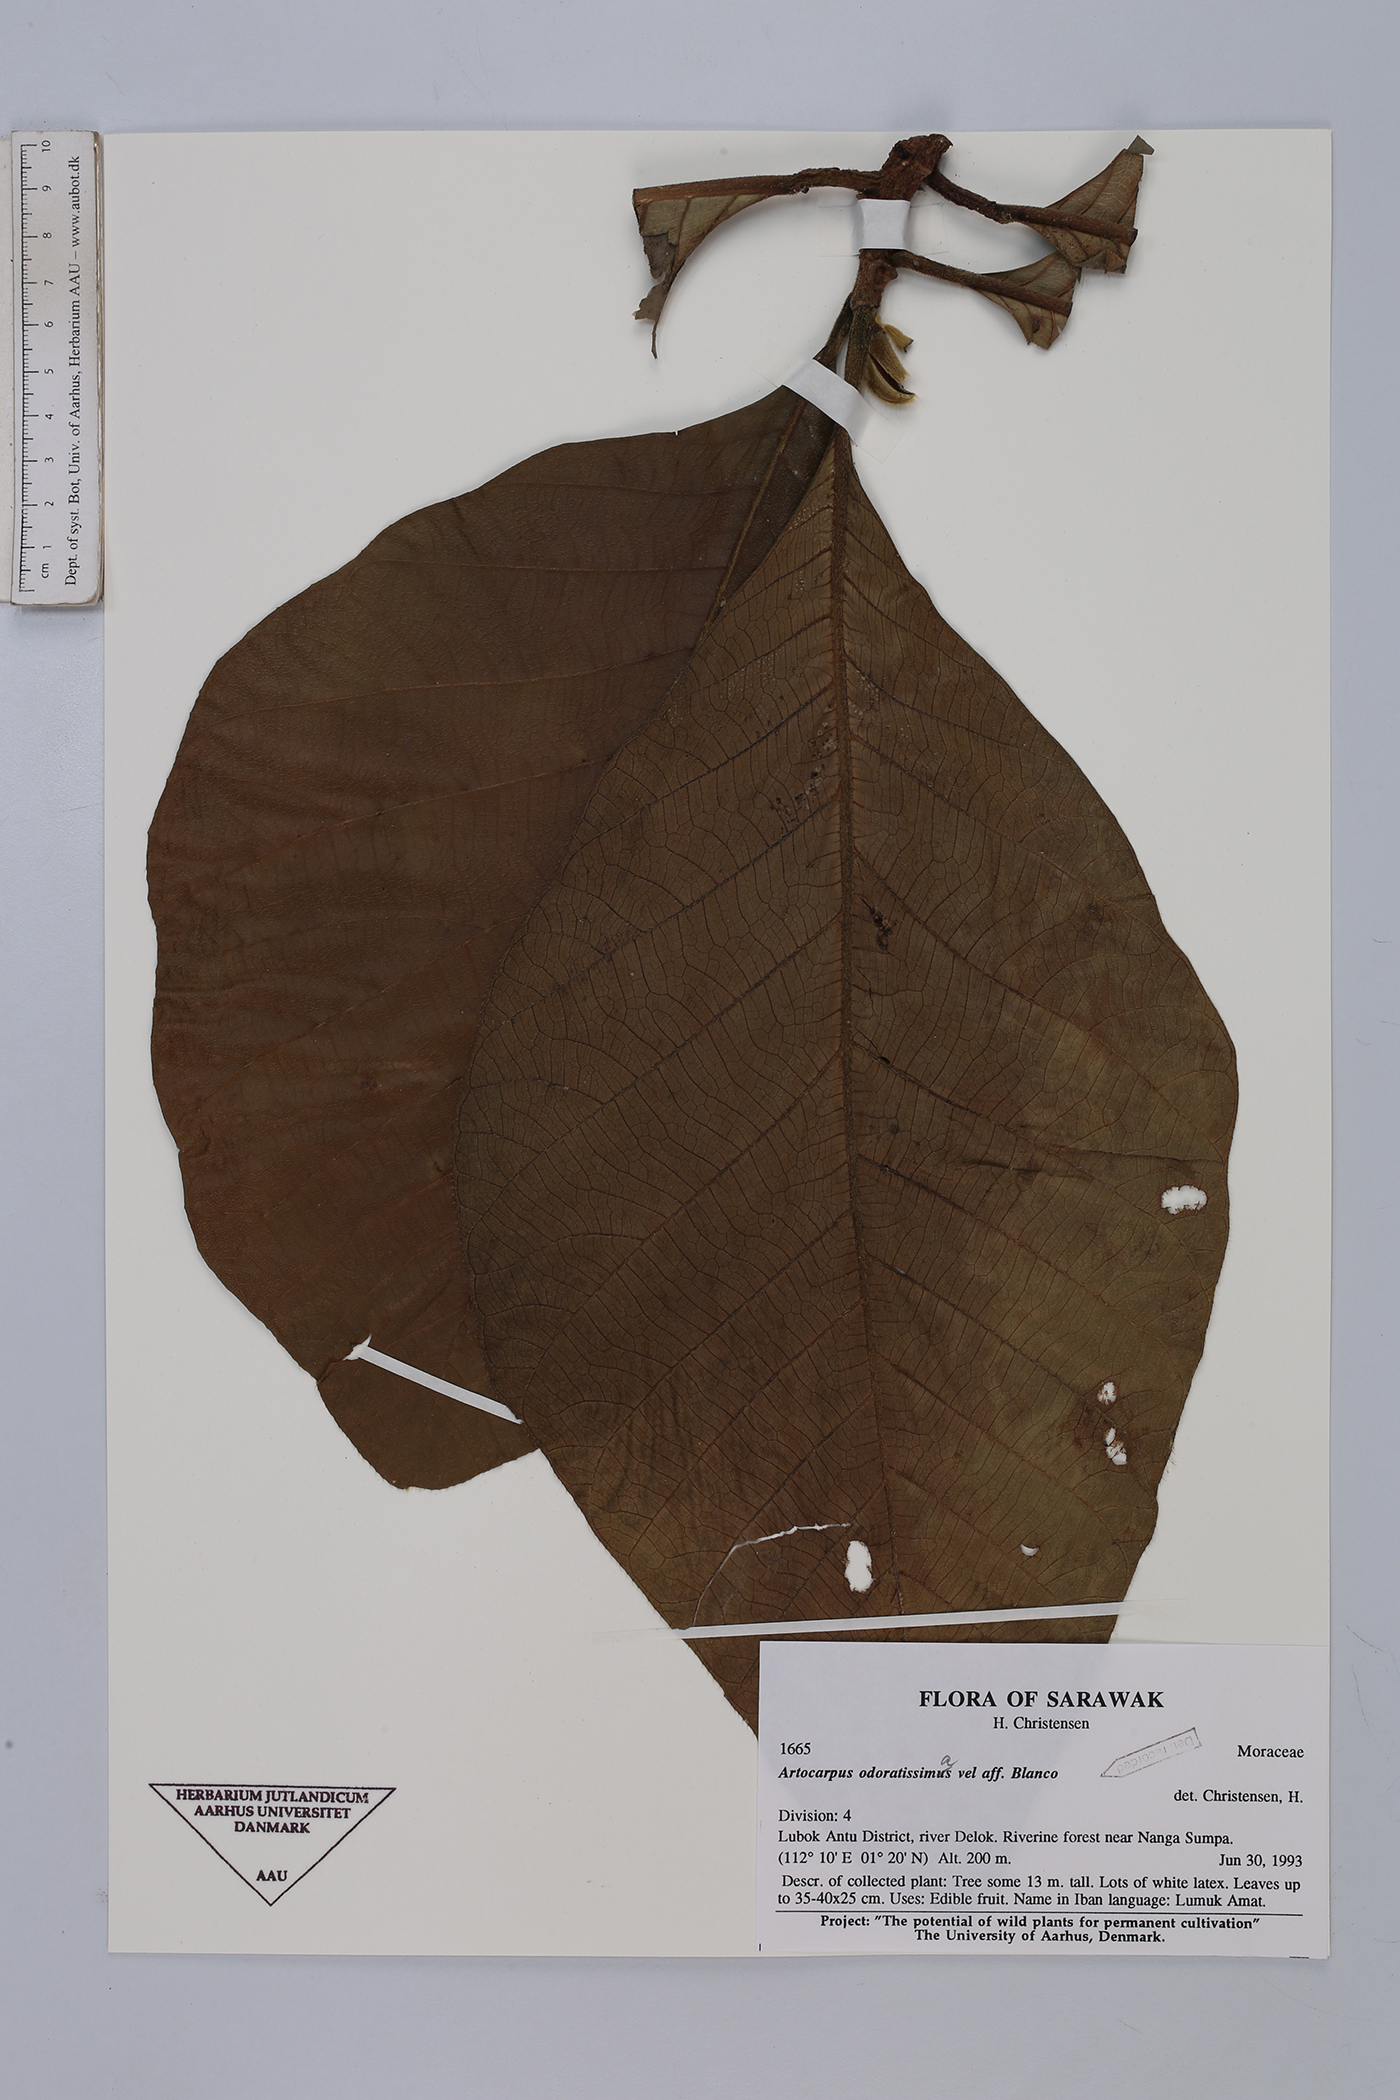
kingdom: Plantae
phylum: Tracheophyta
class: Magnoliopsida
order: Rosales
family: Moraceae
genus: Artocarpus
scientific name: Artocarpus odoratissimus
